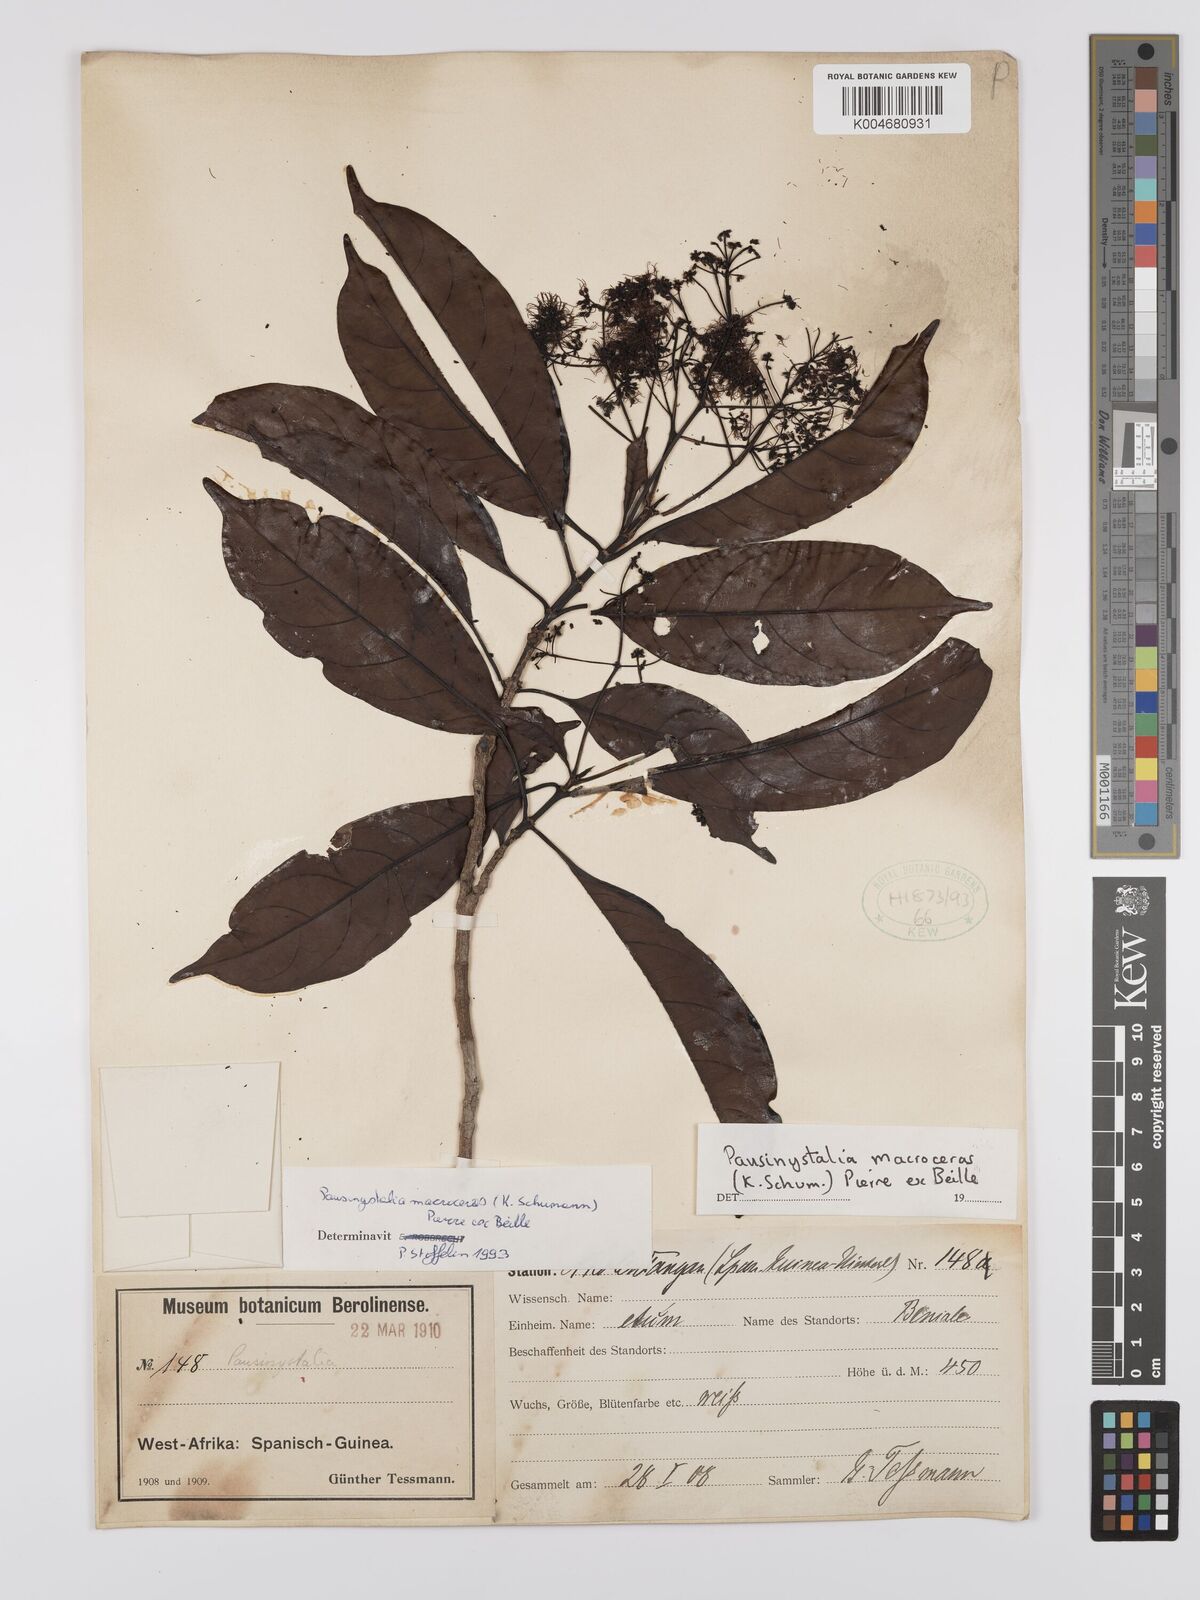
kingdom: Plantae
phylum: Tracheophyta
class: Magnoliopsida
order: Gentianales
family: Rubiaceae
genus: Corynanthe
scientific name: Corynanthe macroceras
